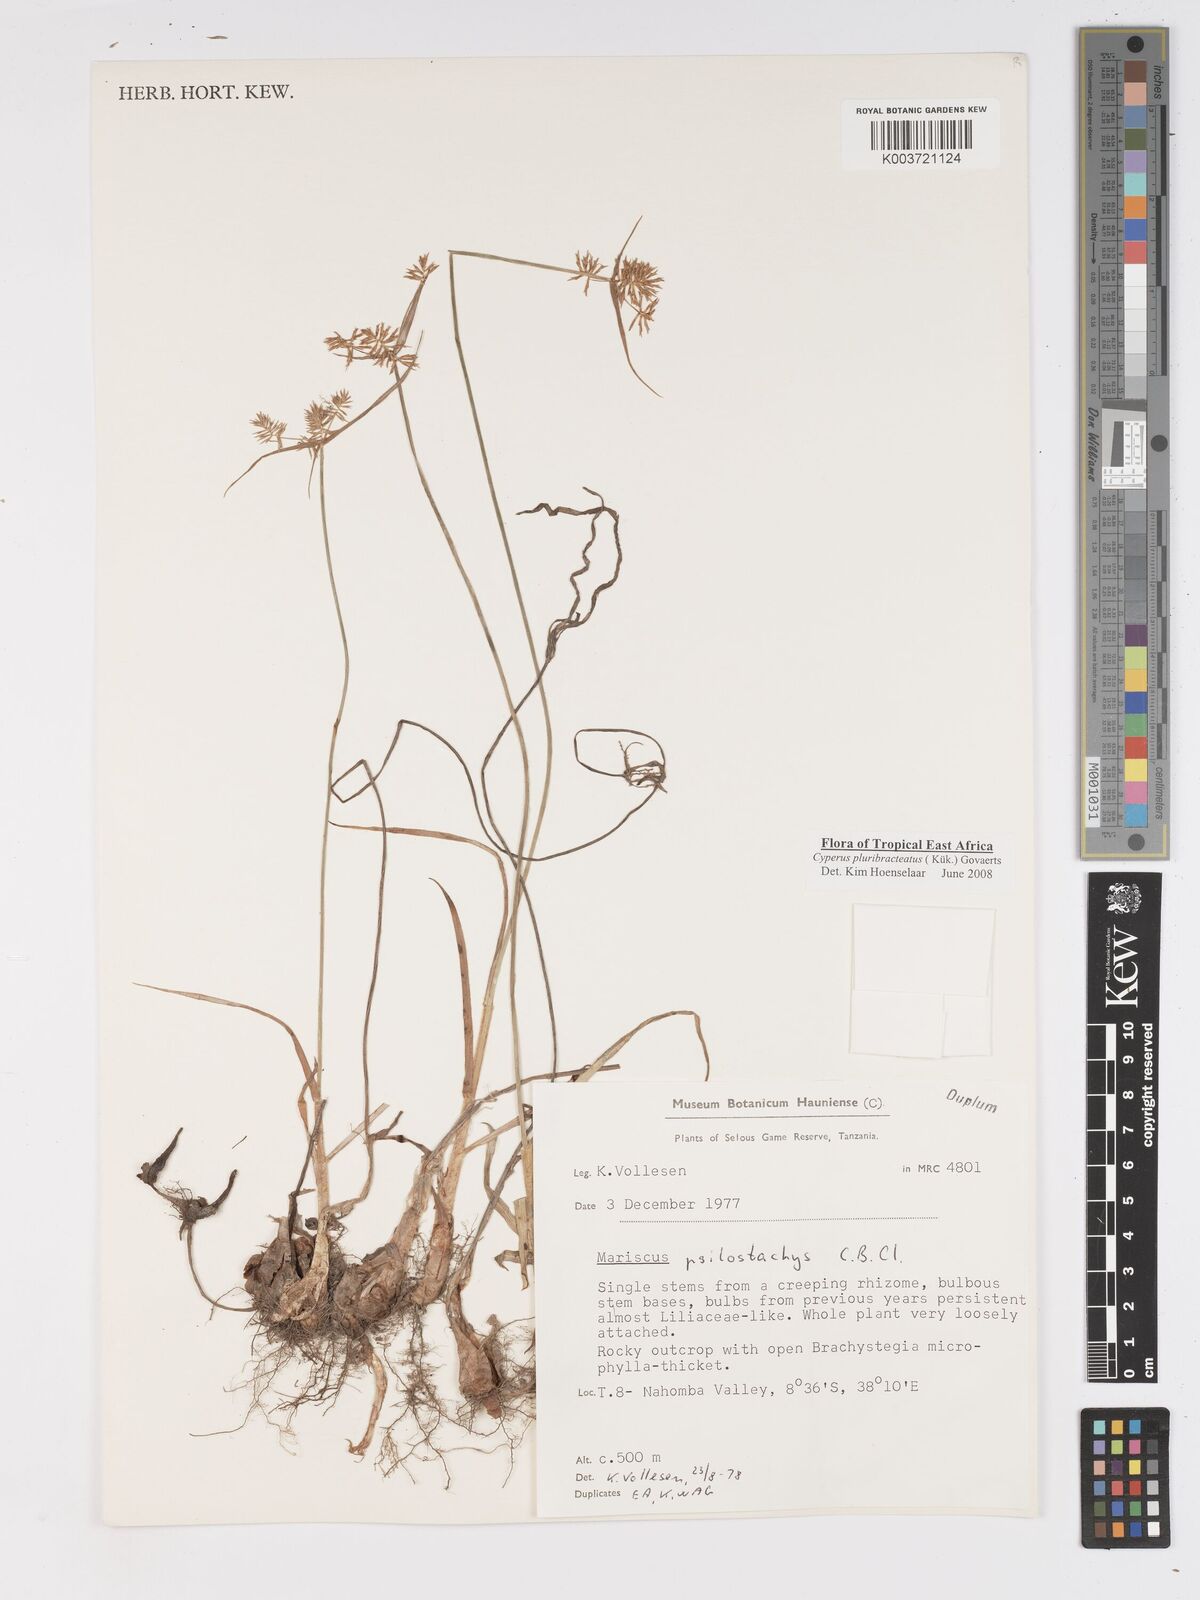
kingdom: Plantae
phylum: Tracheophyta
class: Liliopsida
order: Poales
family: Cyperaceae
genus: Cyperus
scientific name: Cyperus trigonellus
